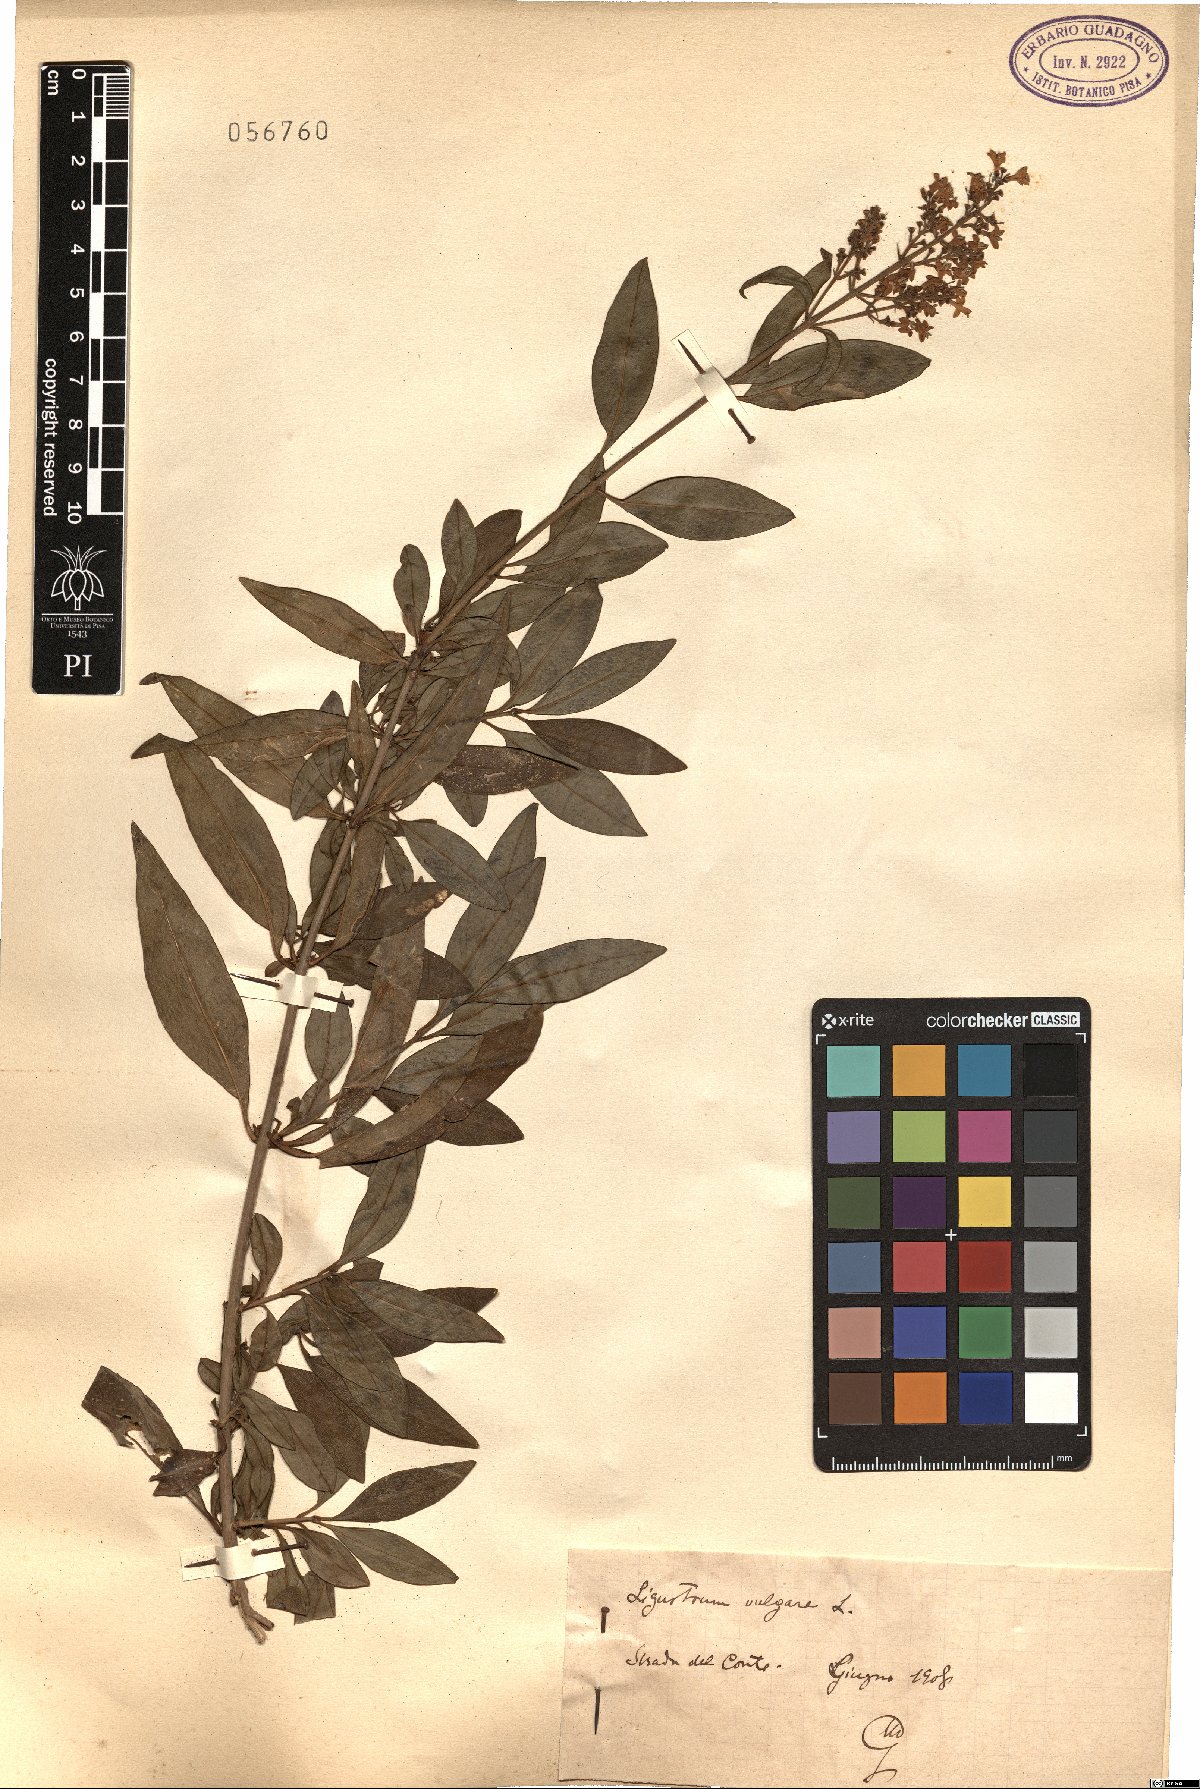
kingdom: Plantae
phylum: Tracheophyta
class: Magnoliopsida
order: Lamiales
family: Oleaceae
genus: Ligustrum
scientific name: Ligustrum vulgare
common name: Wild privet
